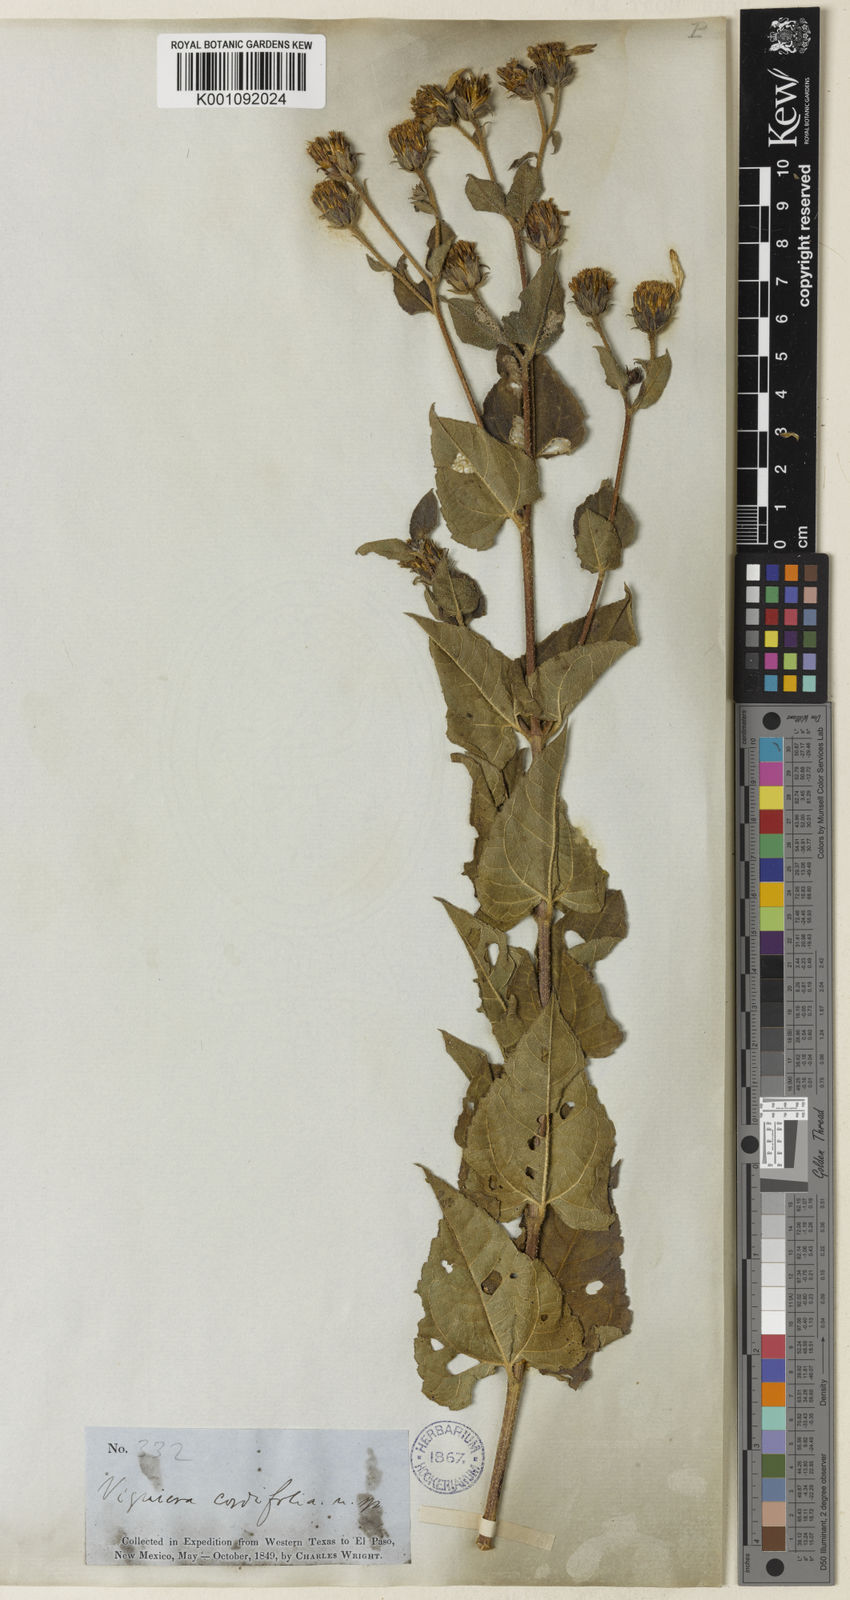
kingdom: Plantae
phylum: Tracheophyta
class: Magnoliopsida
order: Asterales
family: Asteraceae
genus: Aldama
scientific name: Aldama cordifolia
